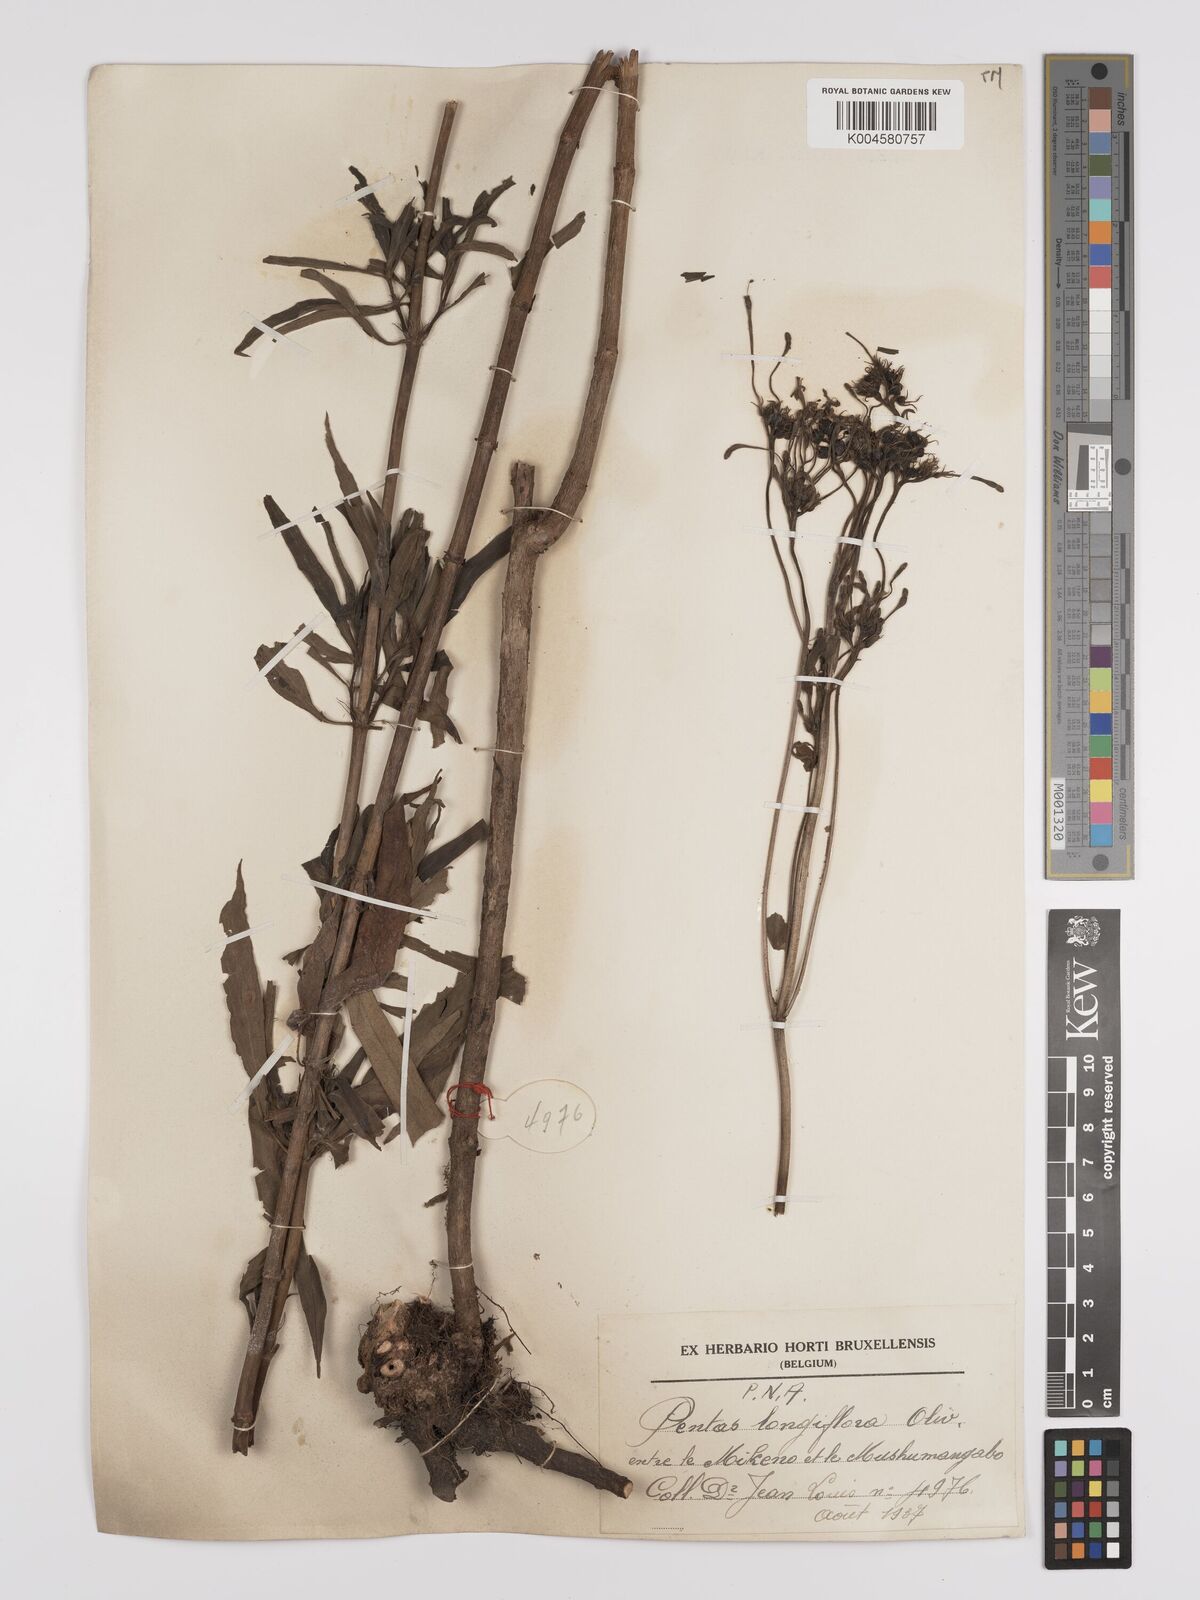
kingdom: Plantae
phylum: Tracheophyta
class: Magnoliopsida
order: Gentianales
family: Rubiaceae
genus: Dolichopentas
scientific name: Dolichopentas longiflora
